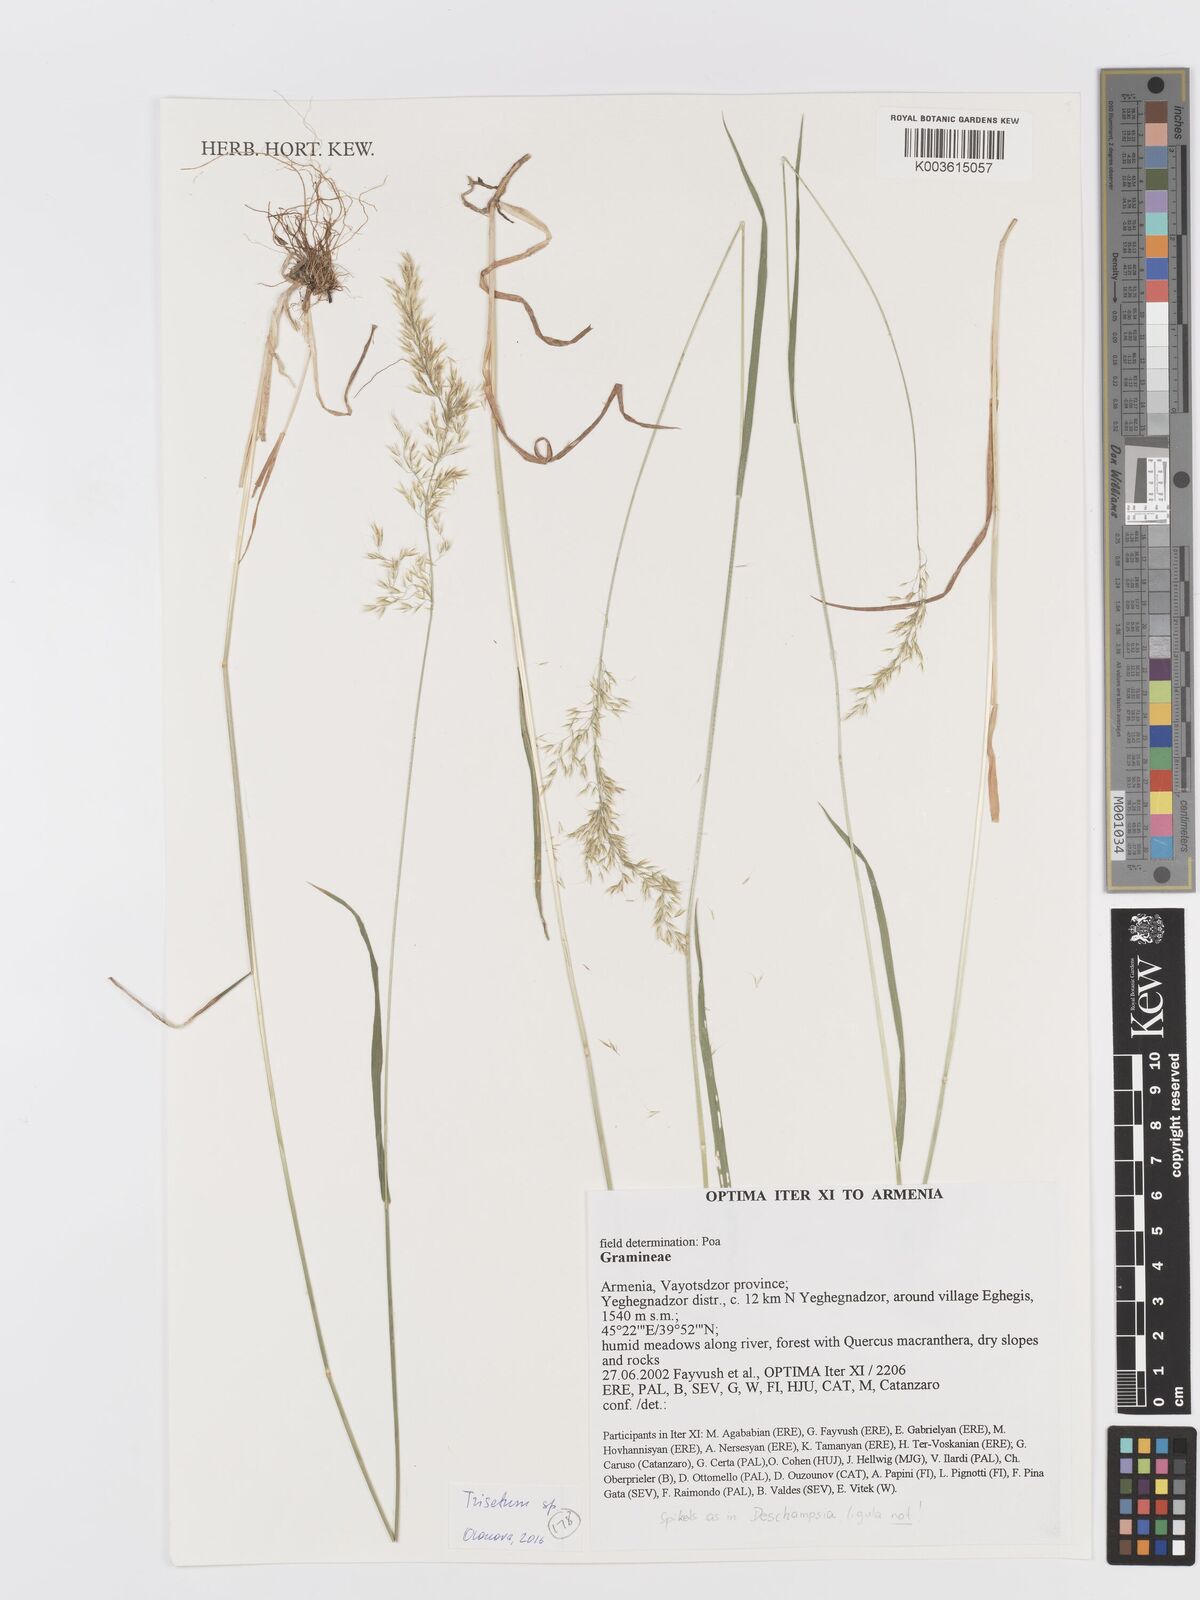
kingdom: Plantae
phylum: Tracheophyta
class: Liliopsida
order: Poales
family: Poaceae
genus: Trisetum
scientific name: Trisetum
